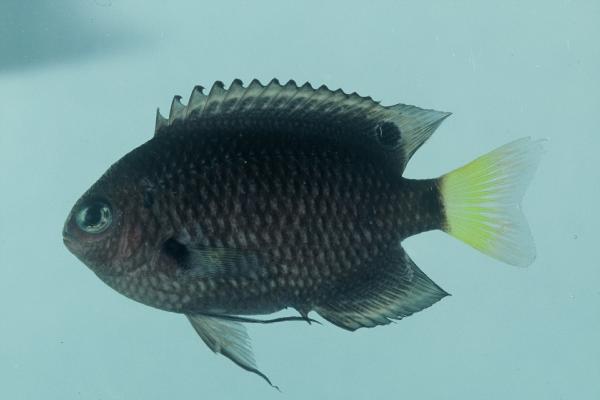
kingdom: Animalia
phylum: Chordata
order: Perciformes
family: Pomacentridae
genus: Pomacentrus
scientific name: Pomacentrus trichrourus
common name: Paletail damsel
